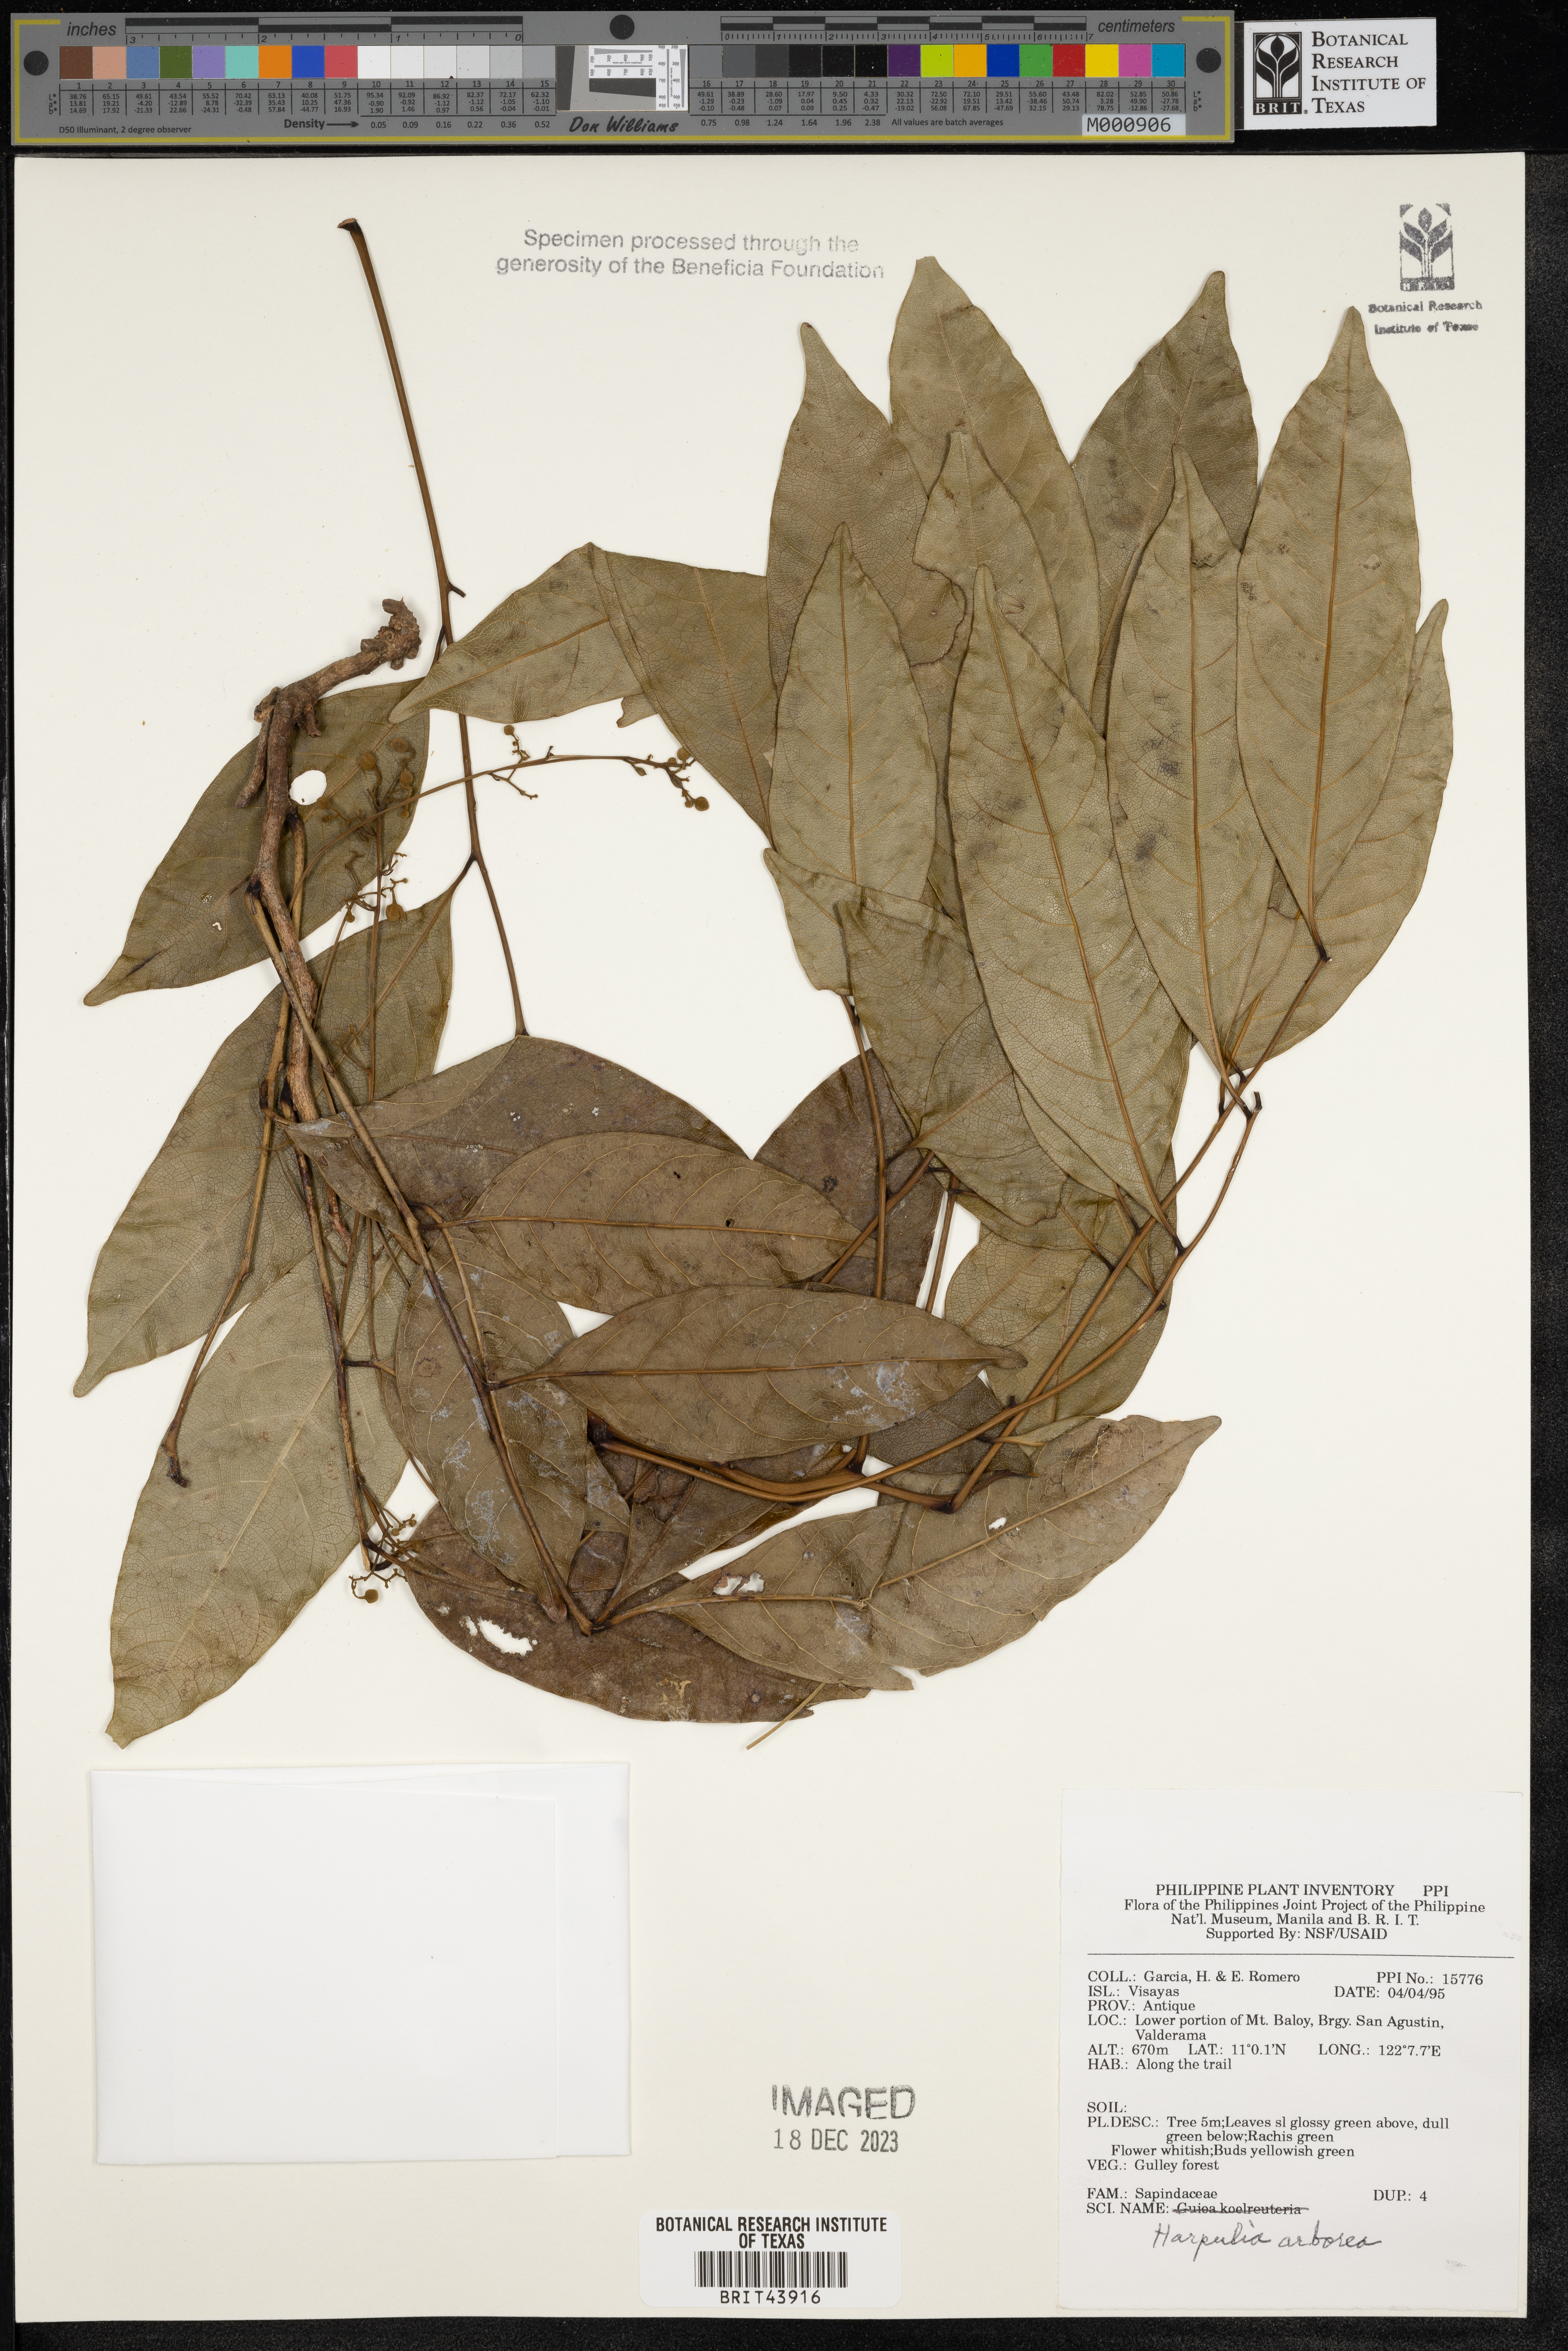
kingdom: Plantae
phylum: Tracheophyta
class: Magnoliopsida
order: Sapindales
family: Sapindaceae
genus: Harpullia
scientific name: Harpullia arborea
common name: Tulip-wood tree
